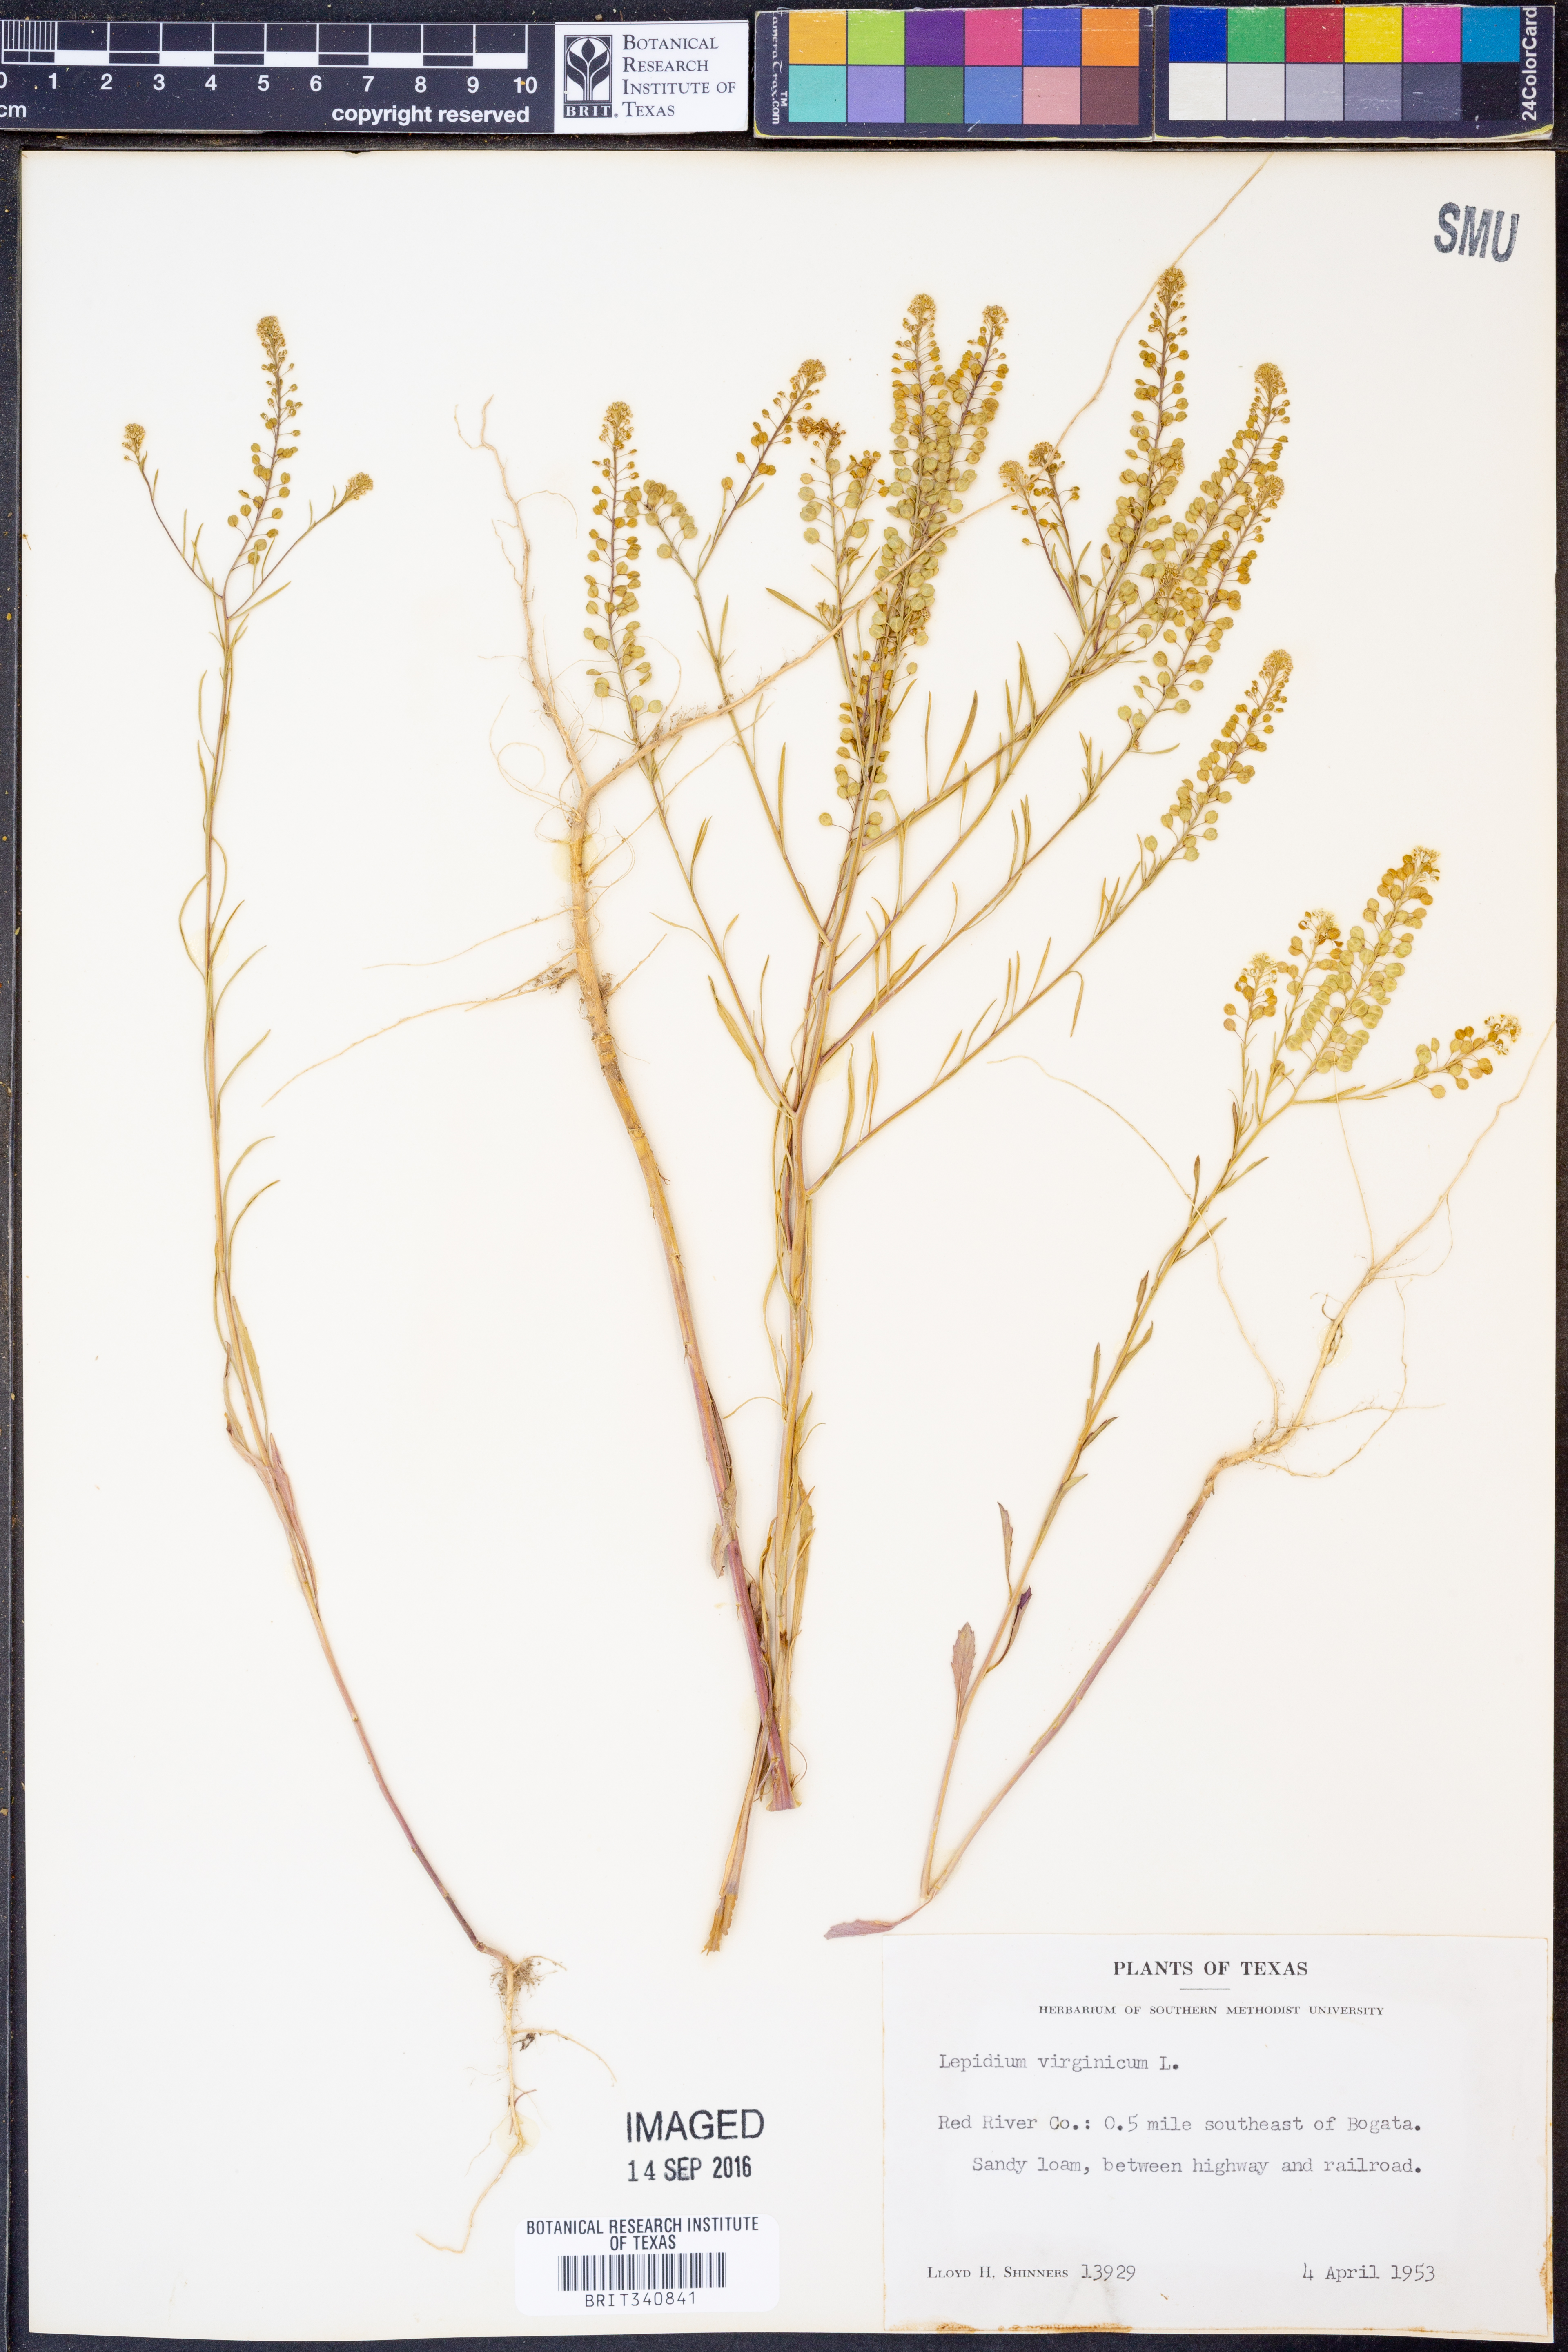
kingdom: Plantae
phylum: Tracheophyta
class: Magnoliopsida
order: Brassicales
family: Brassicaceae
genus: Lepidium
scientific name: Lepidium virginicum
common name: Least pepperwort
